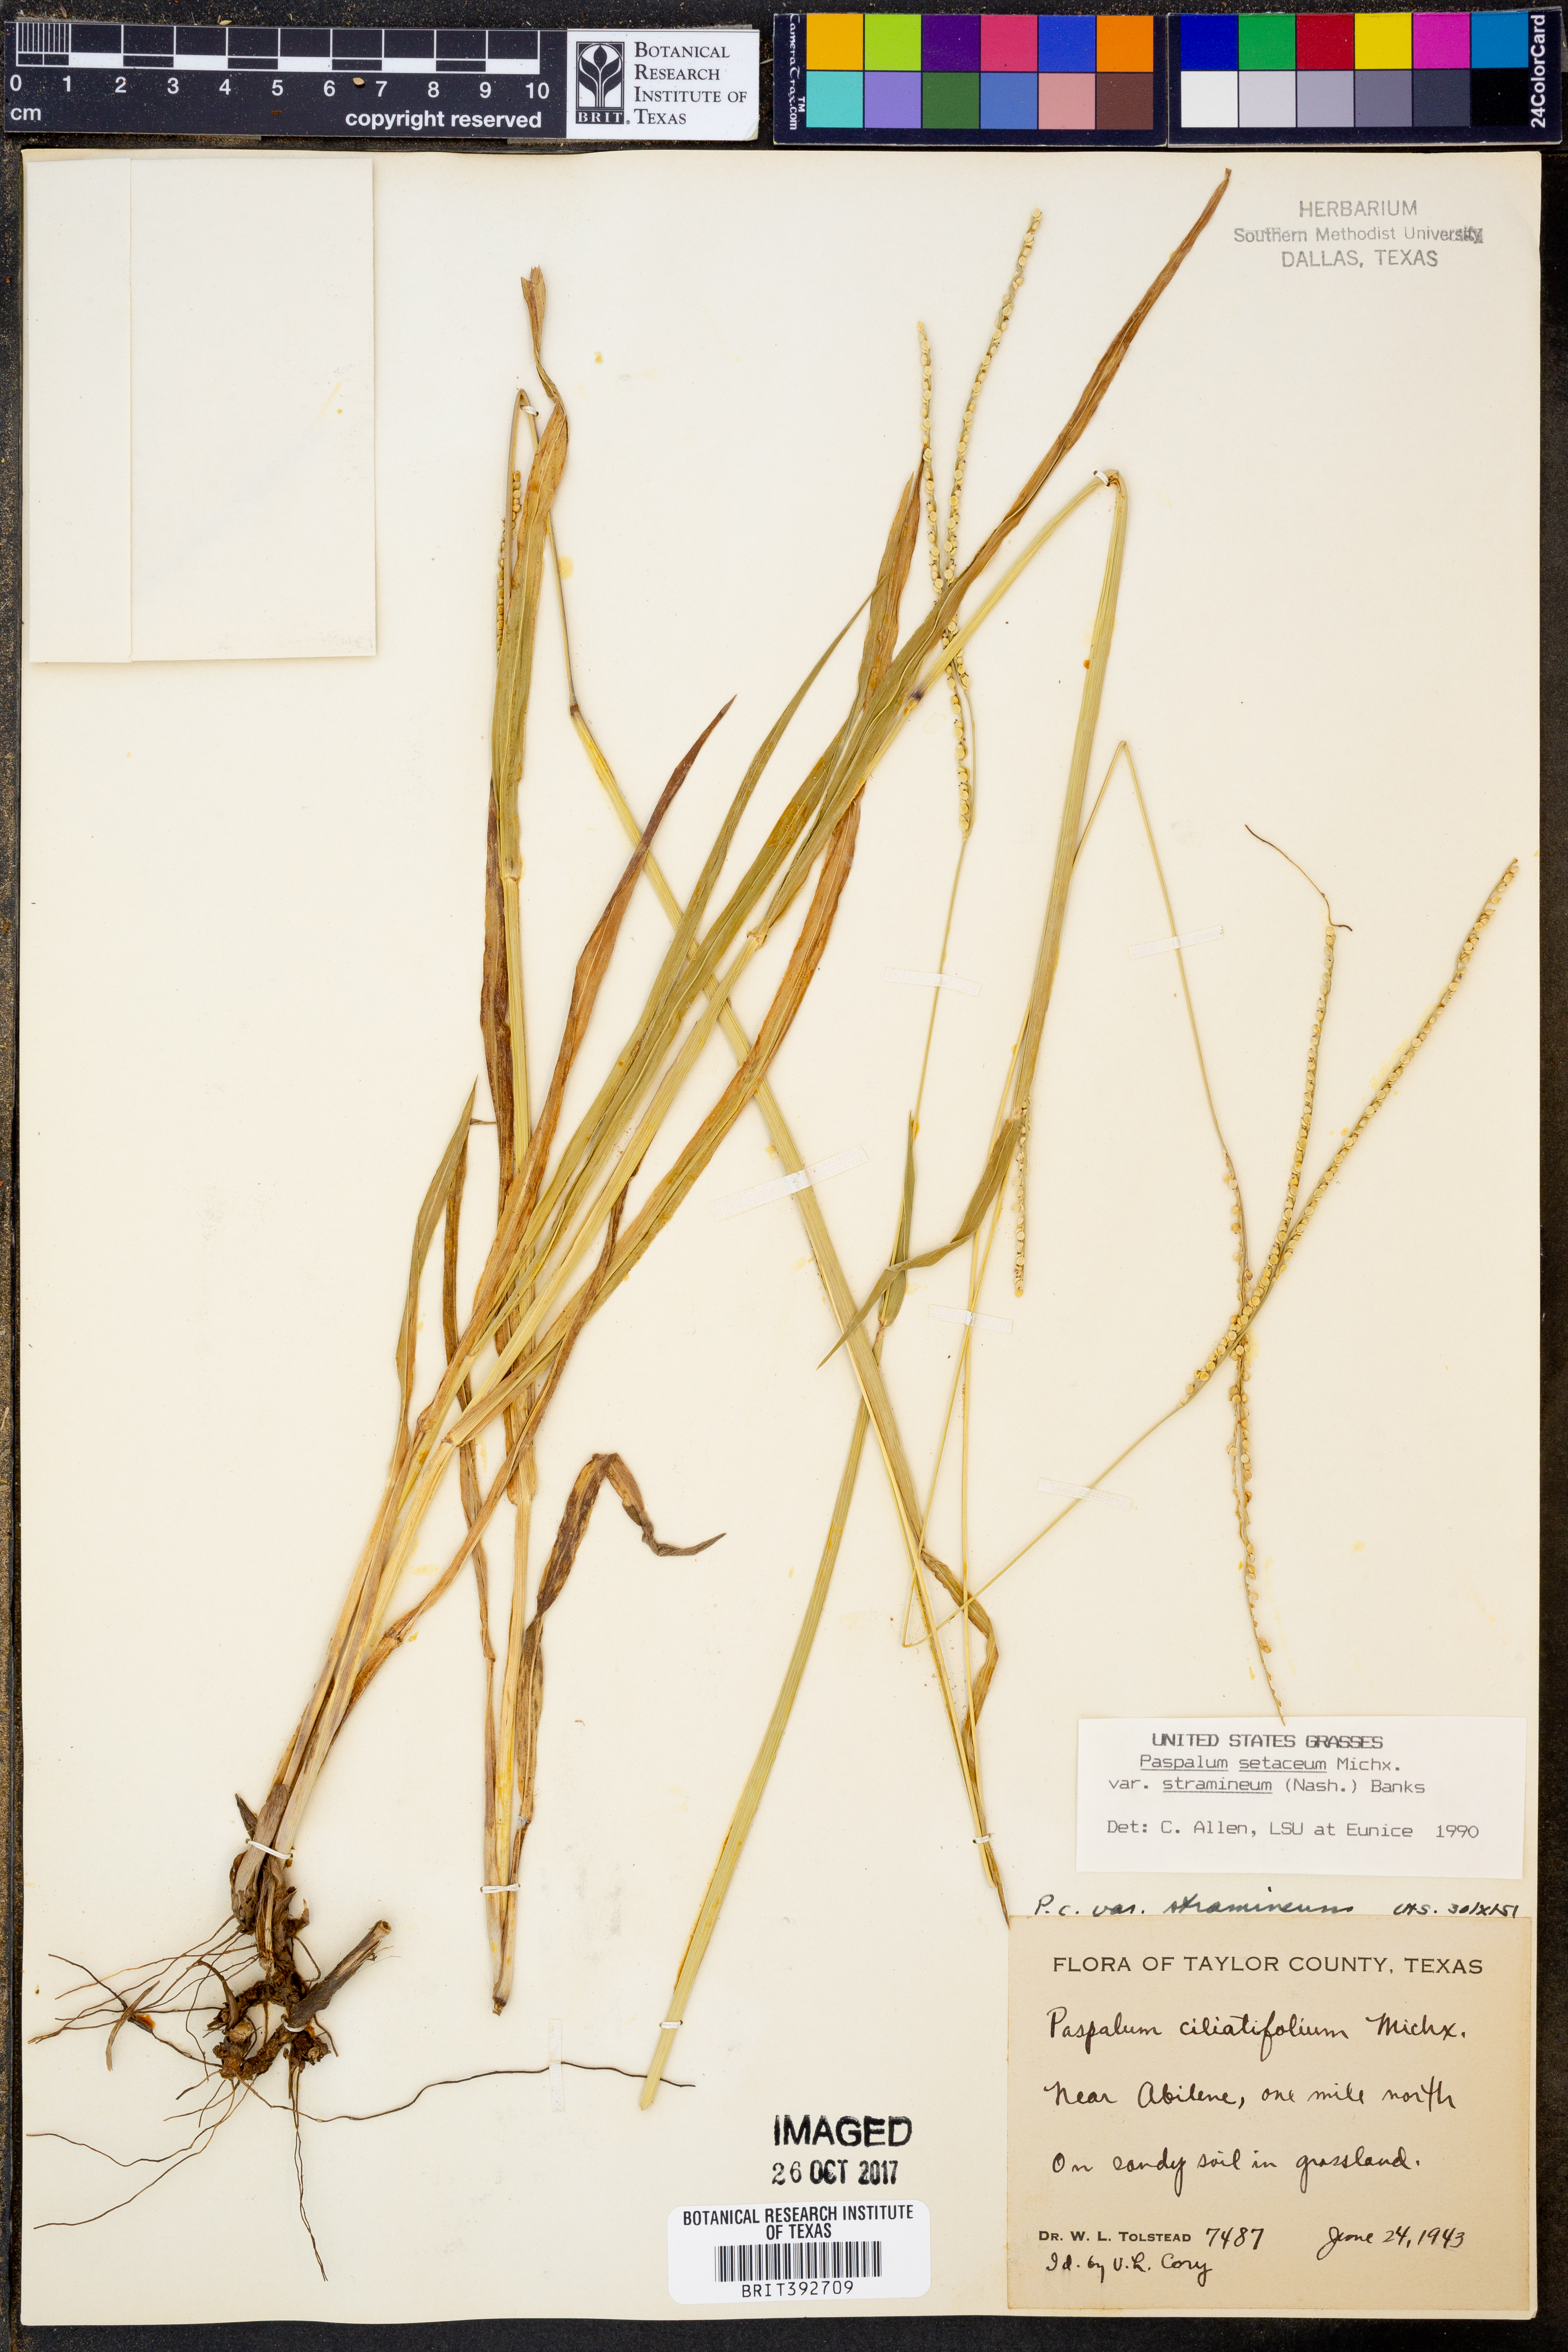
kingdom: Plantae
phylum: Tracheophyta
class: Liliopsida
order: Poales
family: Poaceae
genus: Paspalum
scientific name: Paspalum setaceum
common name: Slender paspalum
